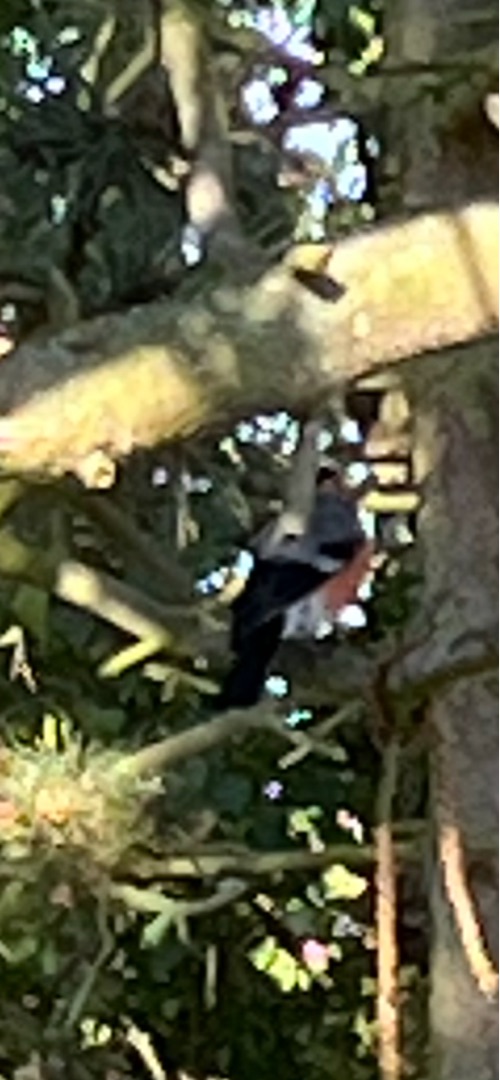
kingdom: Animalia
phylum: Chordata
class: Aves
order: Passeriformes
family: Fringillidae
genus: Pyrrhula
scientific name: Pyrrhula pyrrhula
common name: Dompap
